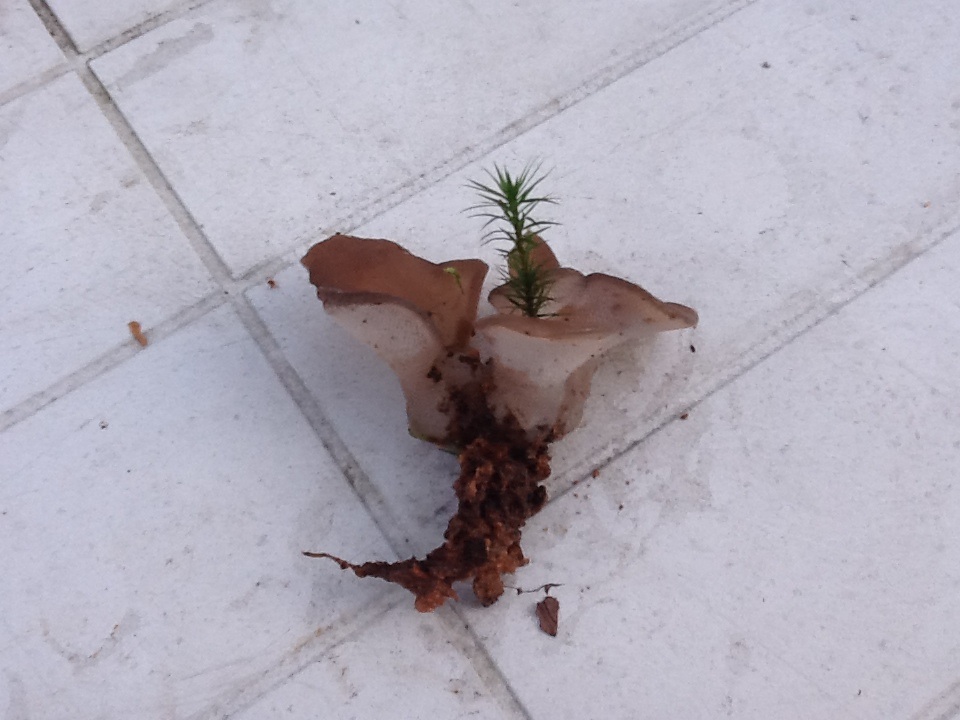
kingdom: Fungi
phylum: Basidiomycota
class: Agaricomycetes
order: Auriculariales
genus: Pseudohydnum
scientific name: Pseudohydnum gelatinosum
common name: bævretand
